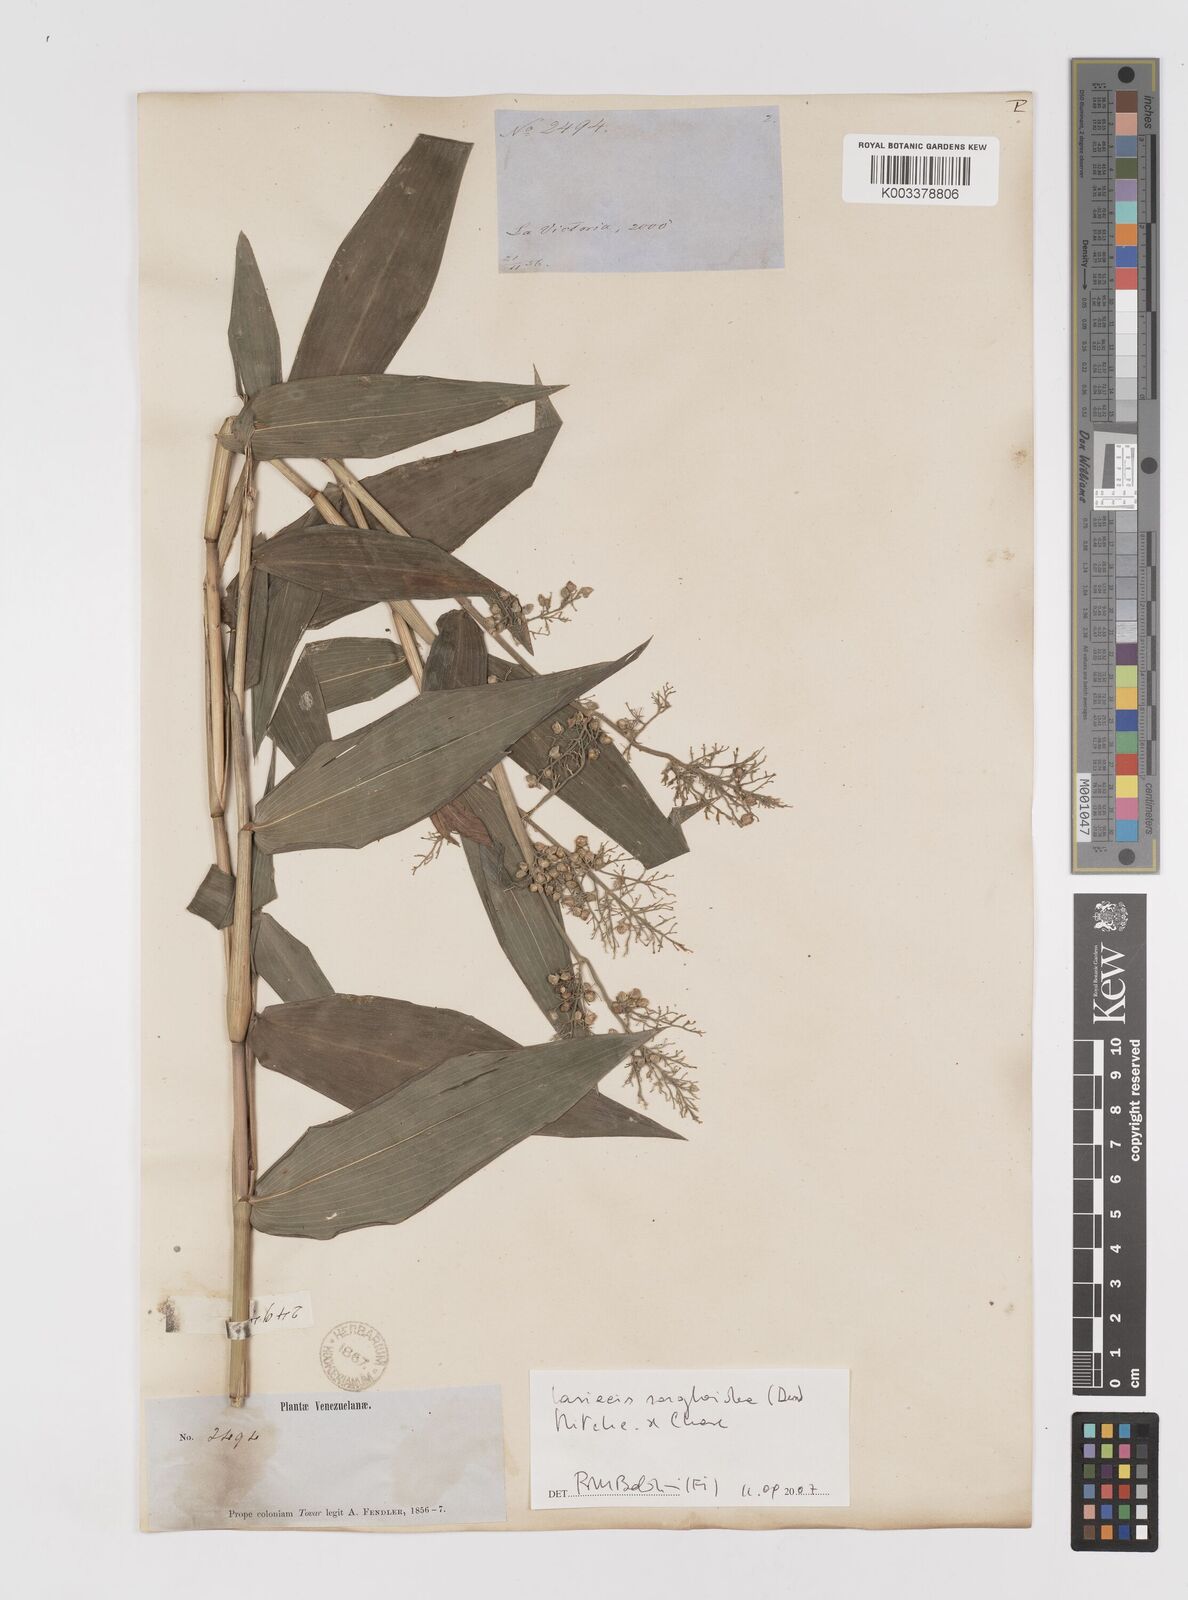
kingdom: Plantae
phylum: Tracheophyta
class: Liliopsida
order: Poales
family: Poaceae
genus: Lasiacis
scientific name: Lasiacis
